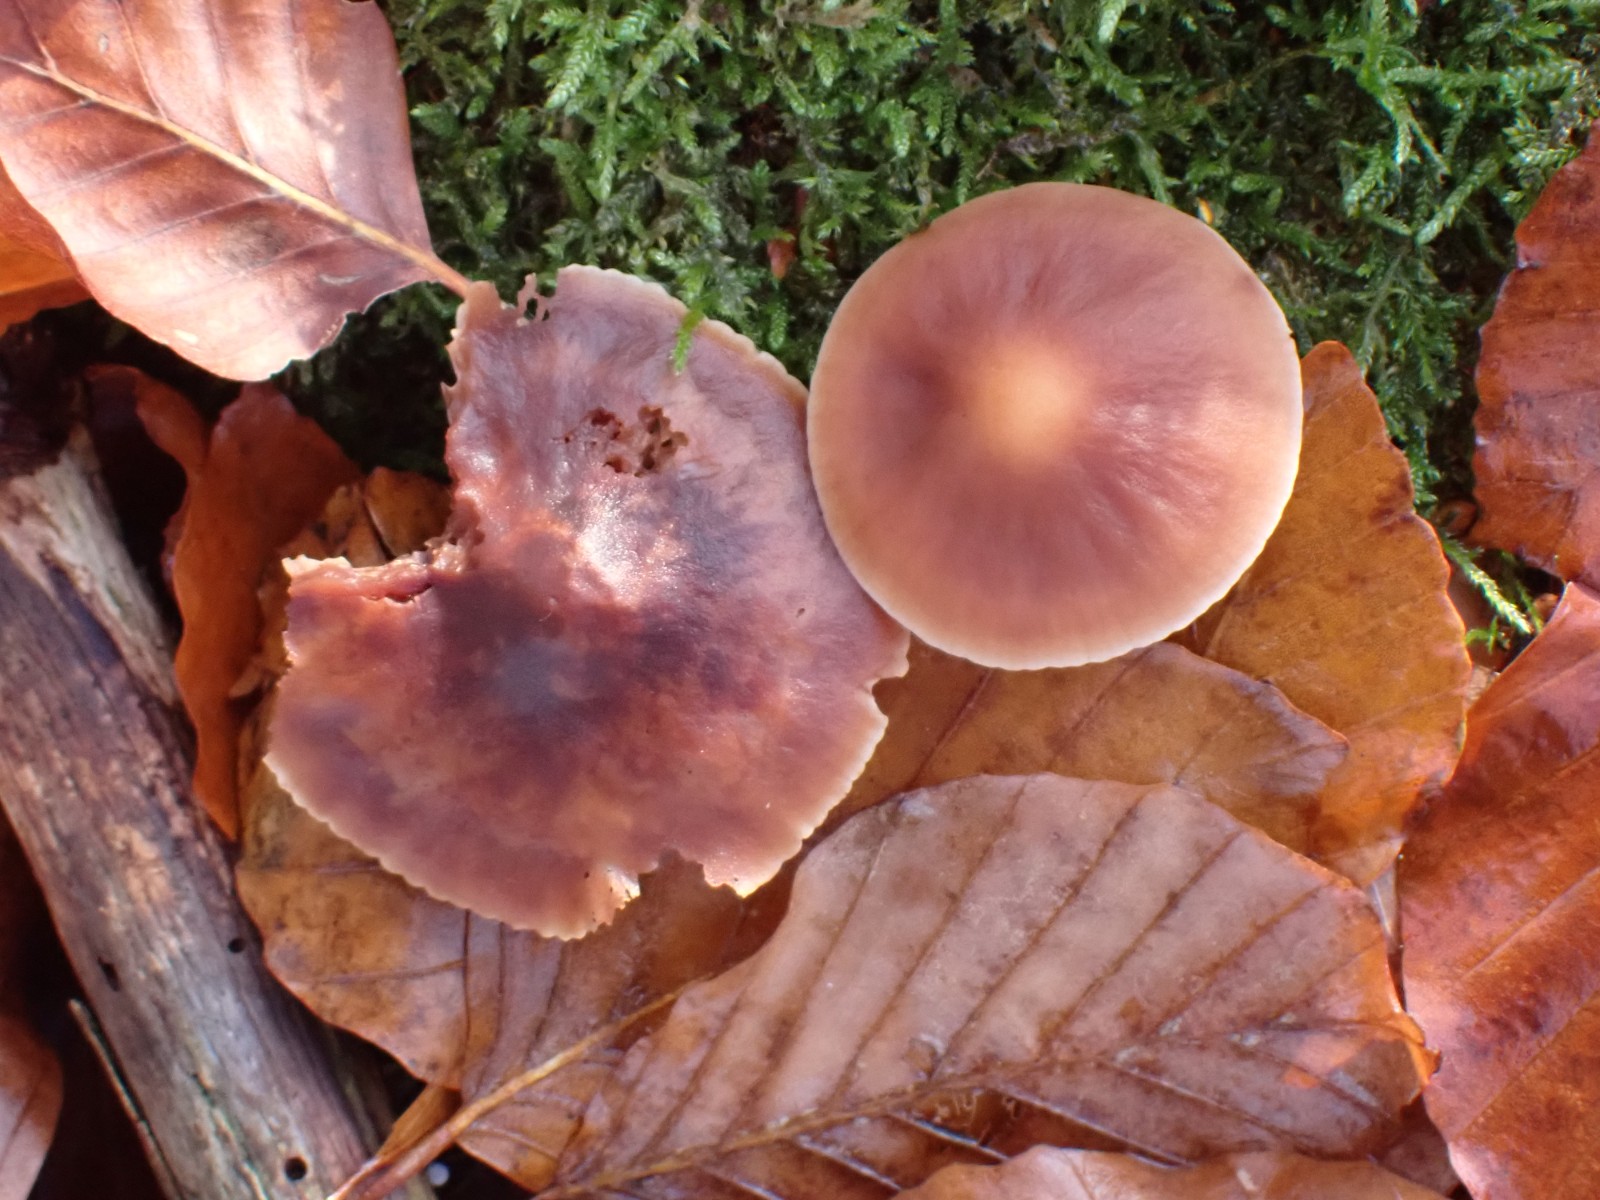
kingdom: Fungi
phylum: Basidiomycota
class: Agaricomycetes
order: Agaricales
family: Omphalotaceae
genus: Gymnopus
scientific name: Gymnopus fusipes
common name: tenstokket fladhat
